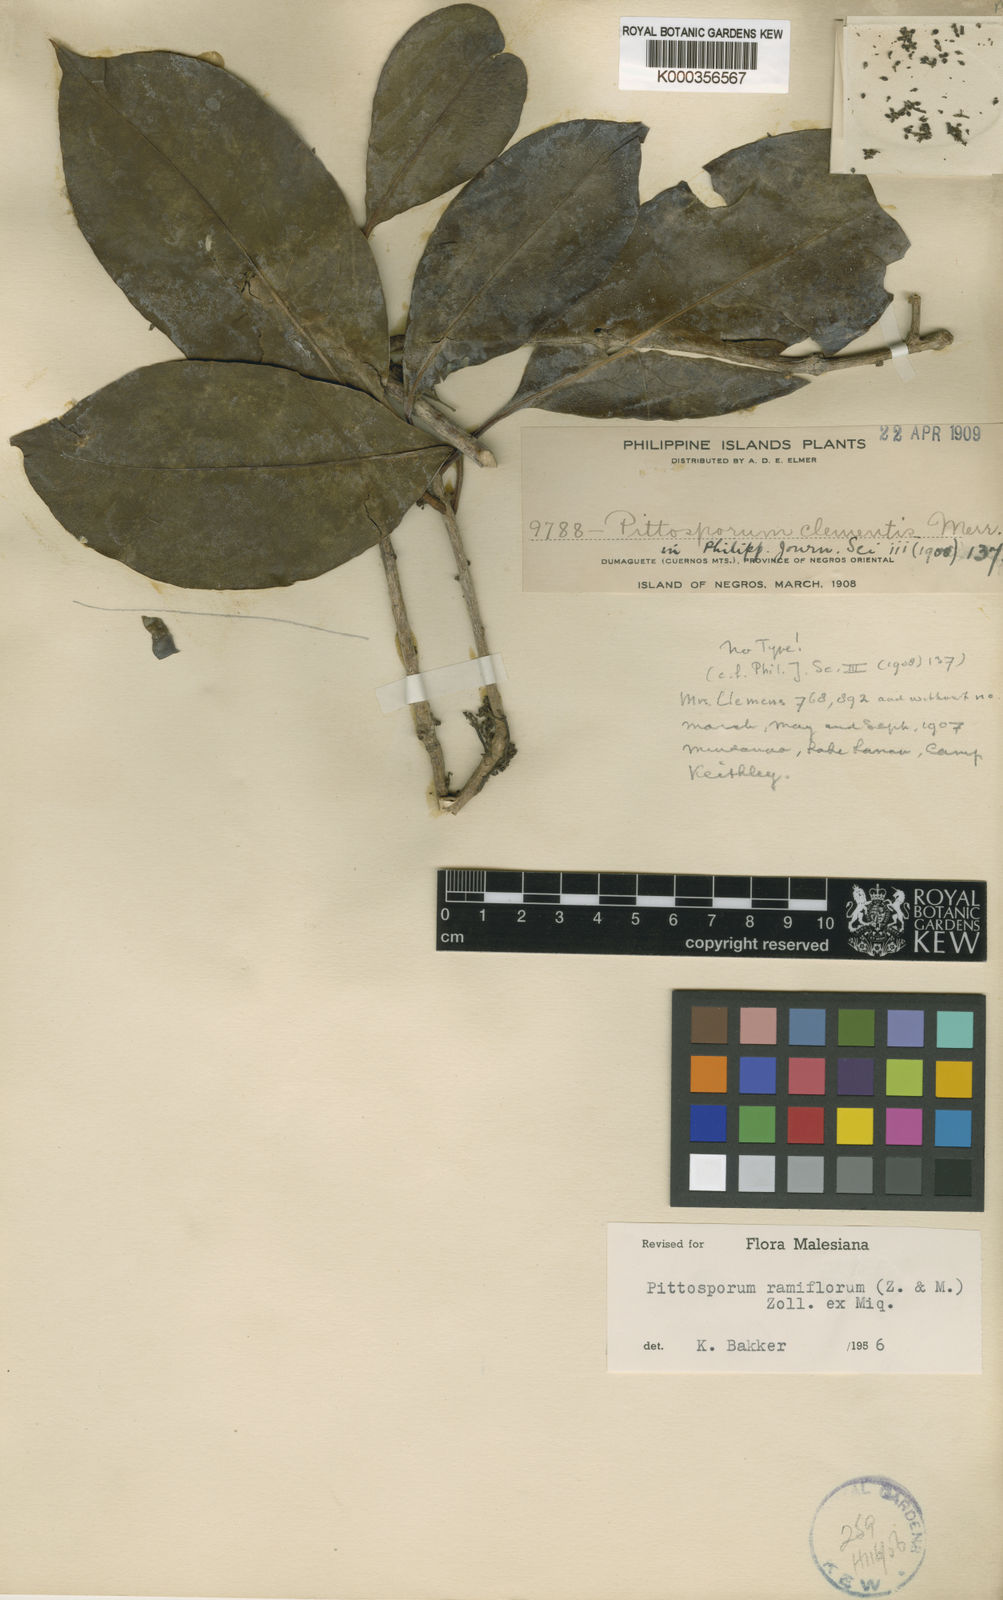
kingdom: Plantae
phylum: Tracheophyta
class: Magnoliopsida
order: Apiales
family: Pittosporaceae
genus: Pittosporum
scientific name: Pittosporum ramiflorum
